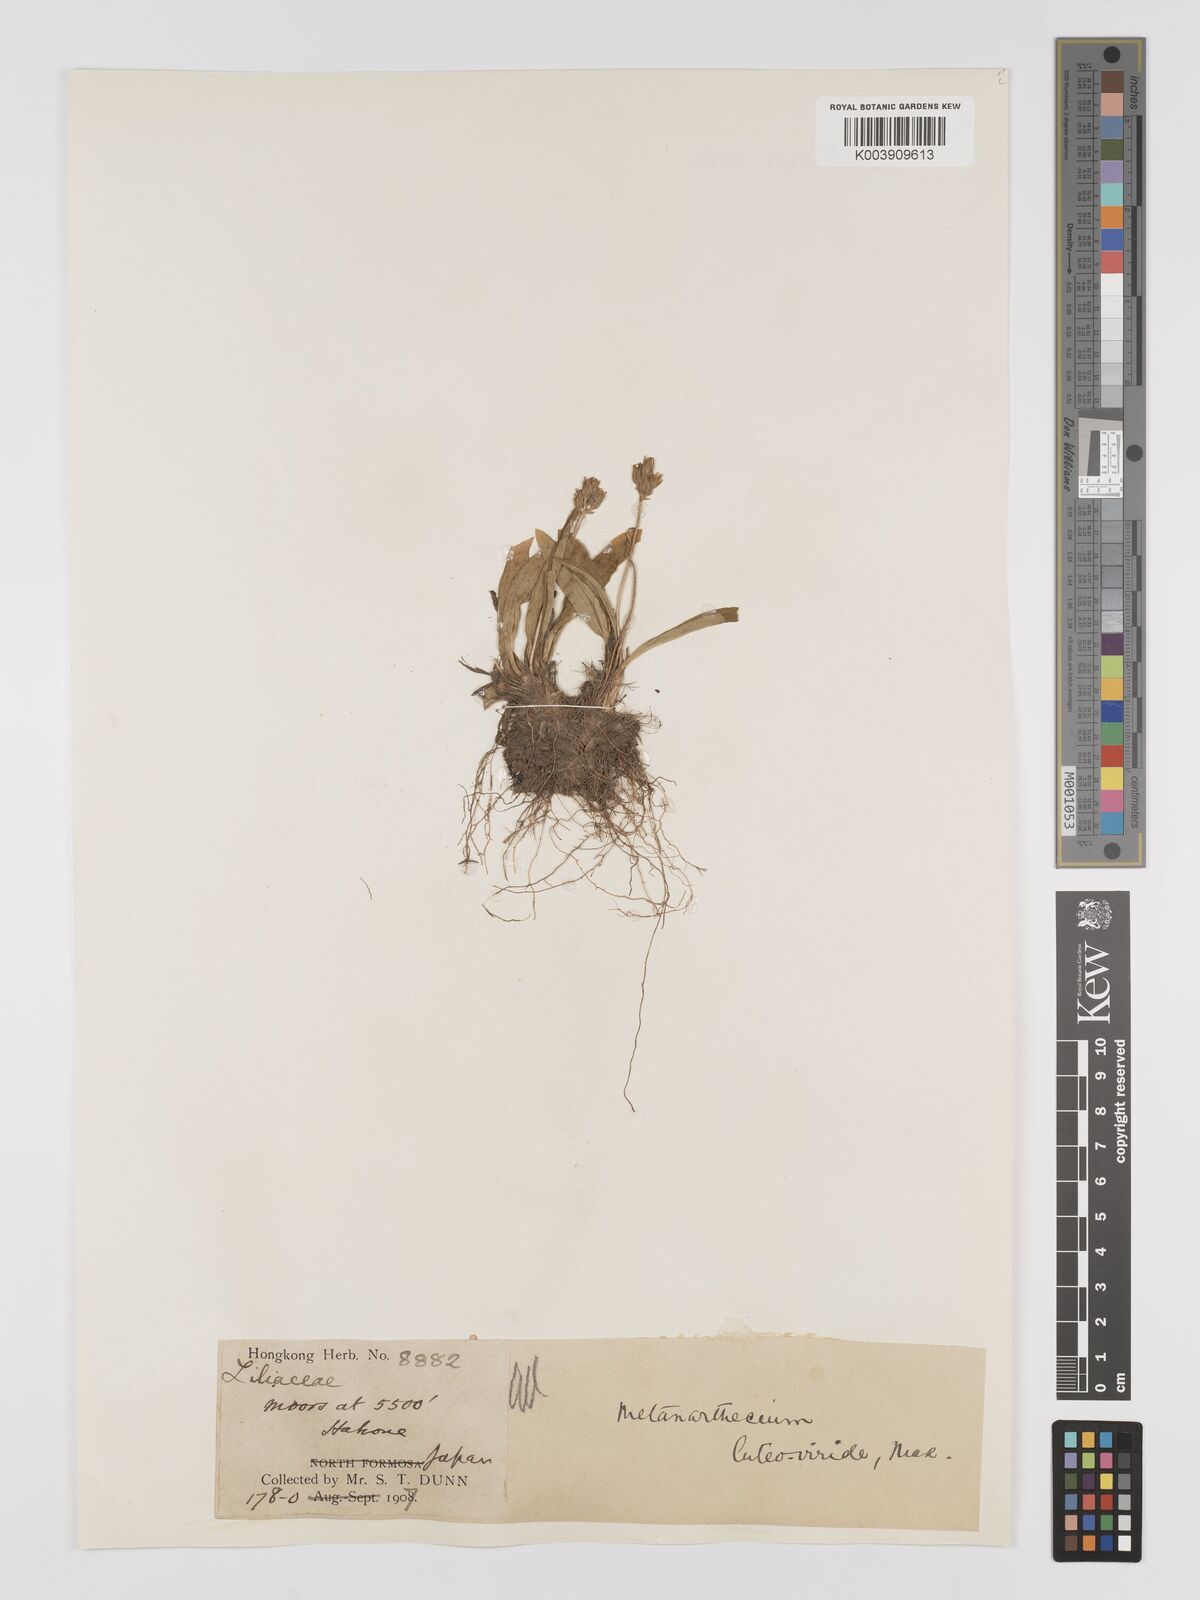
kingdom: Plantae
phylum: Tracheophyta
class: Liliopsida
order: Dioscoreales
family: Nartheciaceae
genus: Metanarthecium
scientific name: Metanarthecium luteoviride
